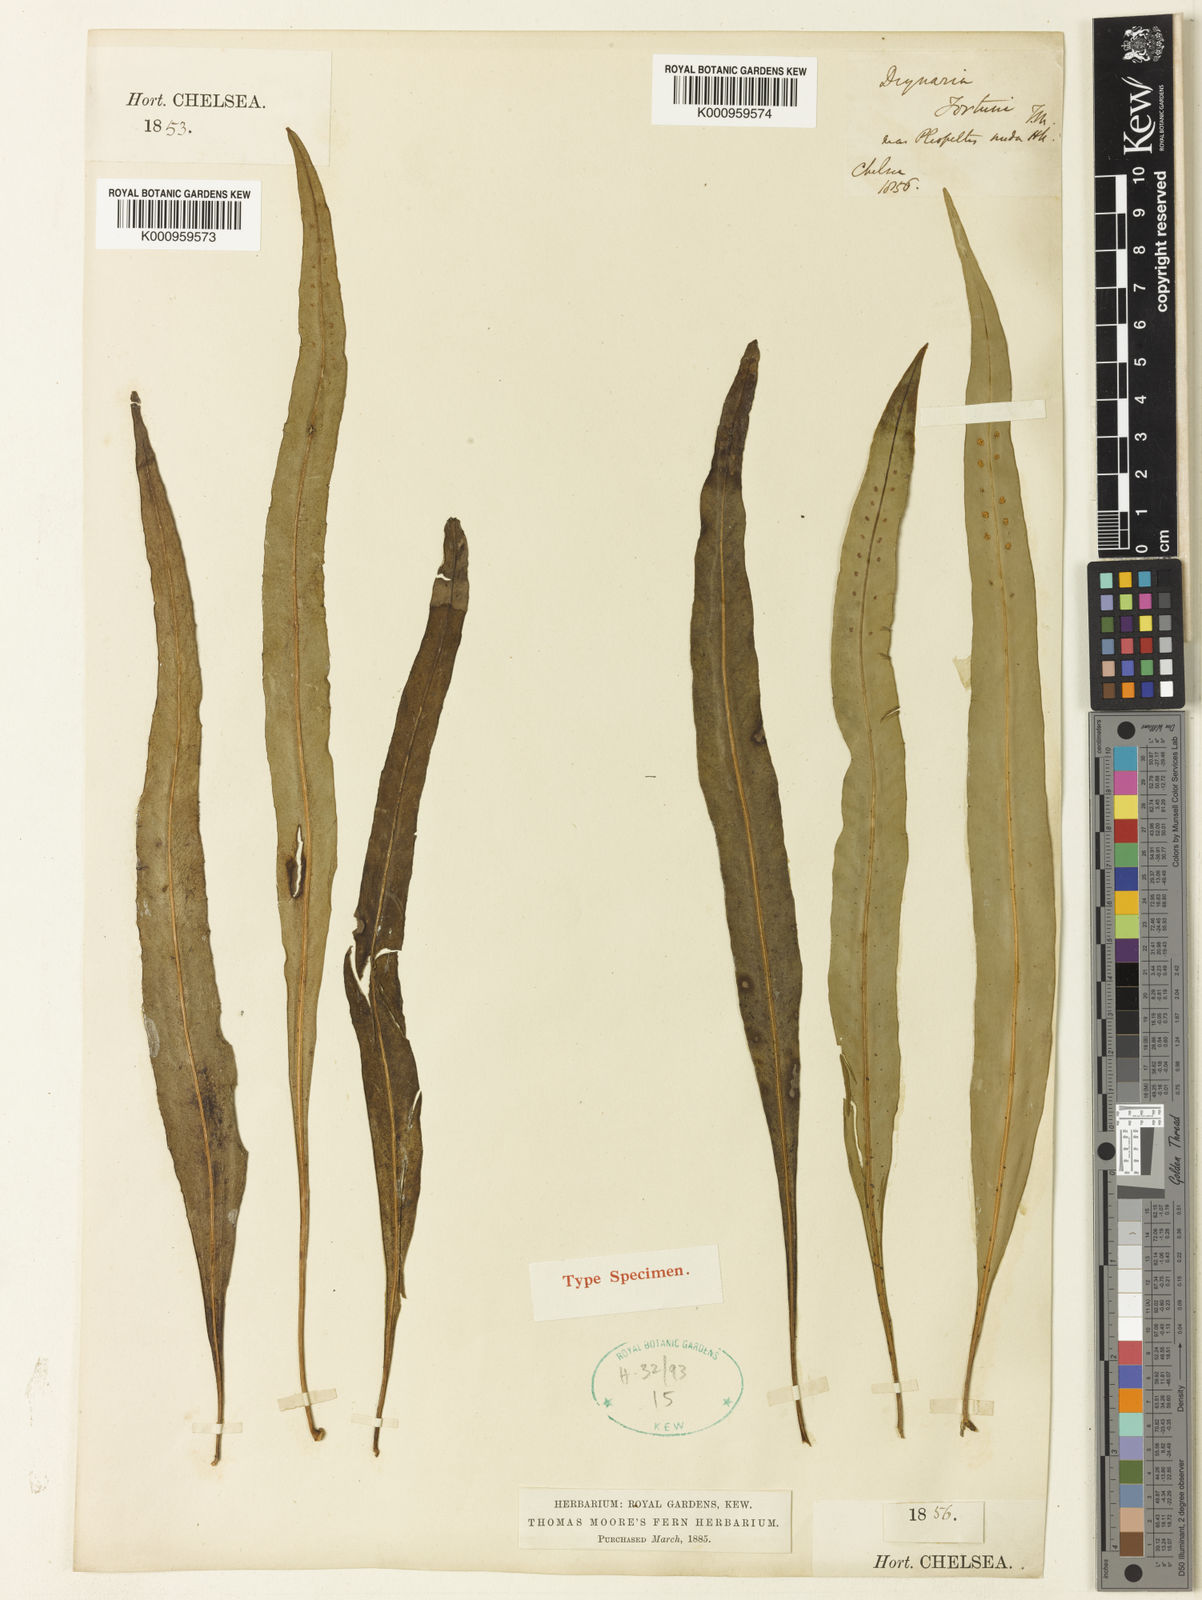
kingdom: Plantae
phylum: Tracheophyta
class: Polypodiopsida
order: Polypodiales
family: Polypodiaceae
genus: Lepisorus
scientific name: Lepisorus nudus
